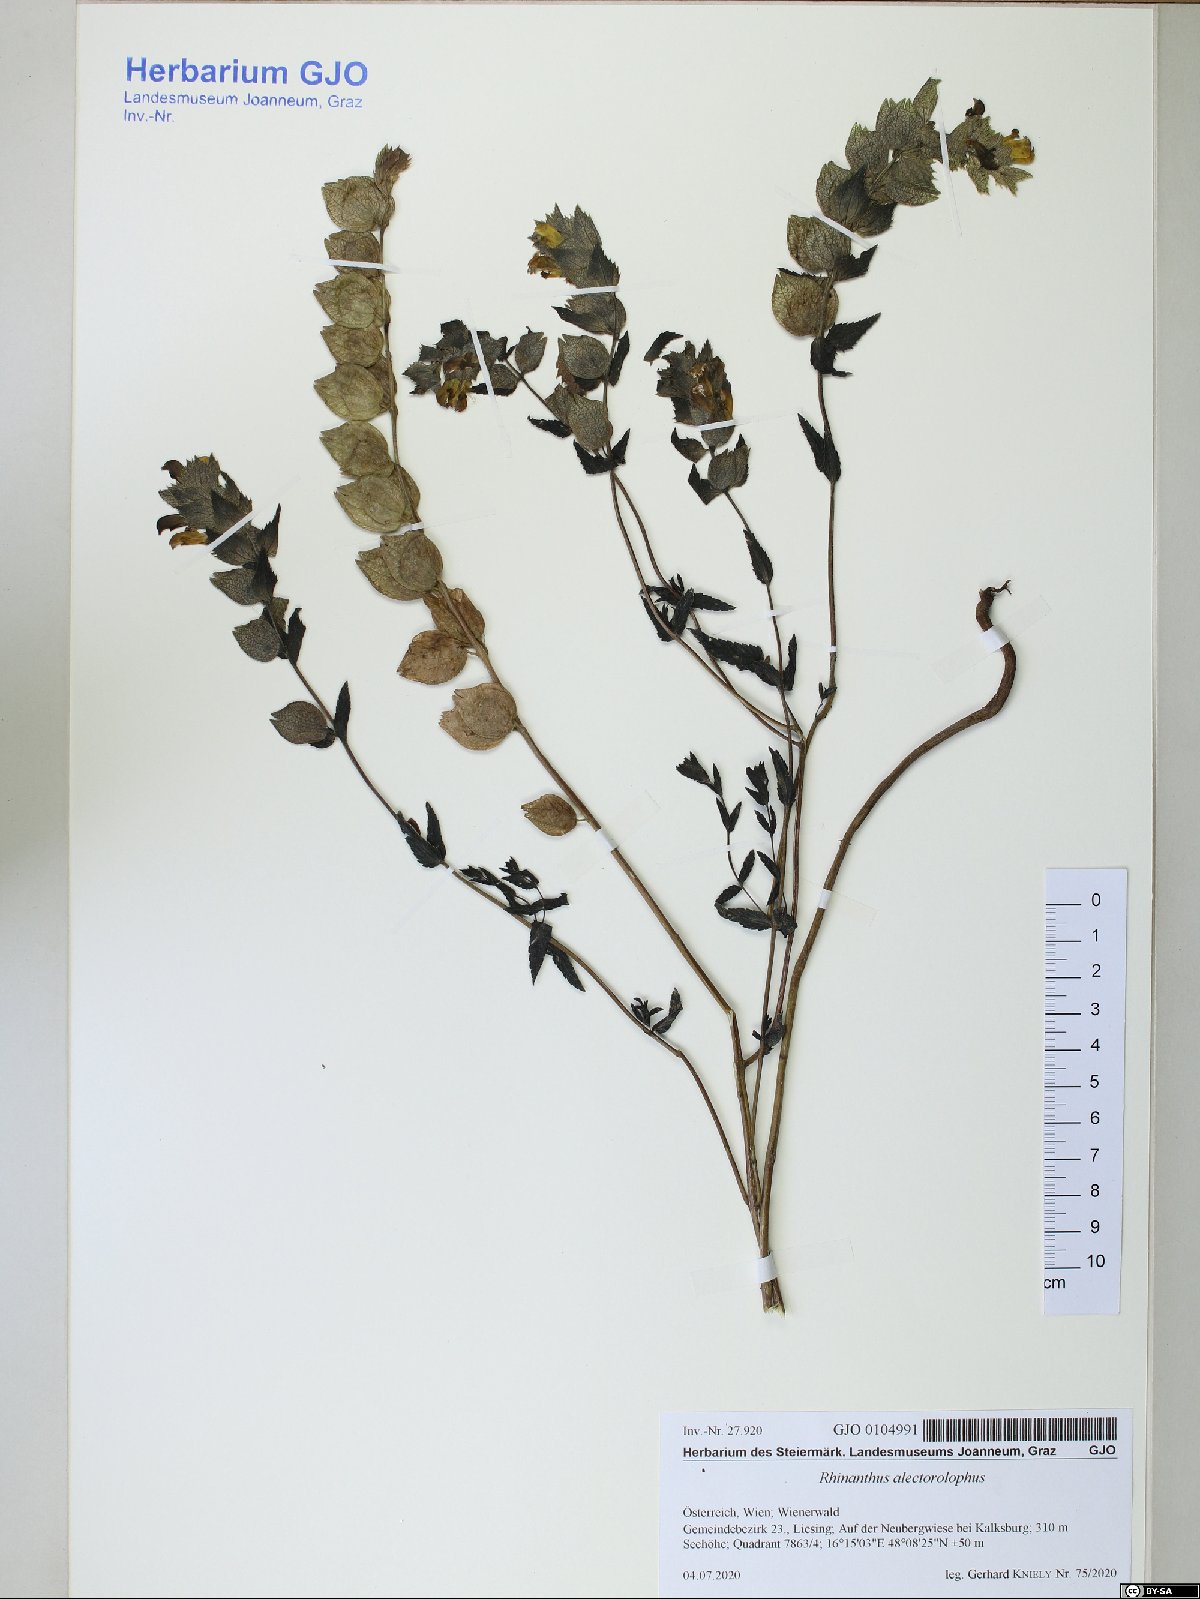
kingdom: Plantae
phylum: Tracheophyta
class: Magnoliopsida
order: Lamiales
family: Orobanchaceae
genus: Rhinanthus
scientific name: Rhinanthus alectorolophus
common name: Greater yellow-rattle
